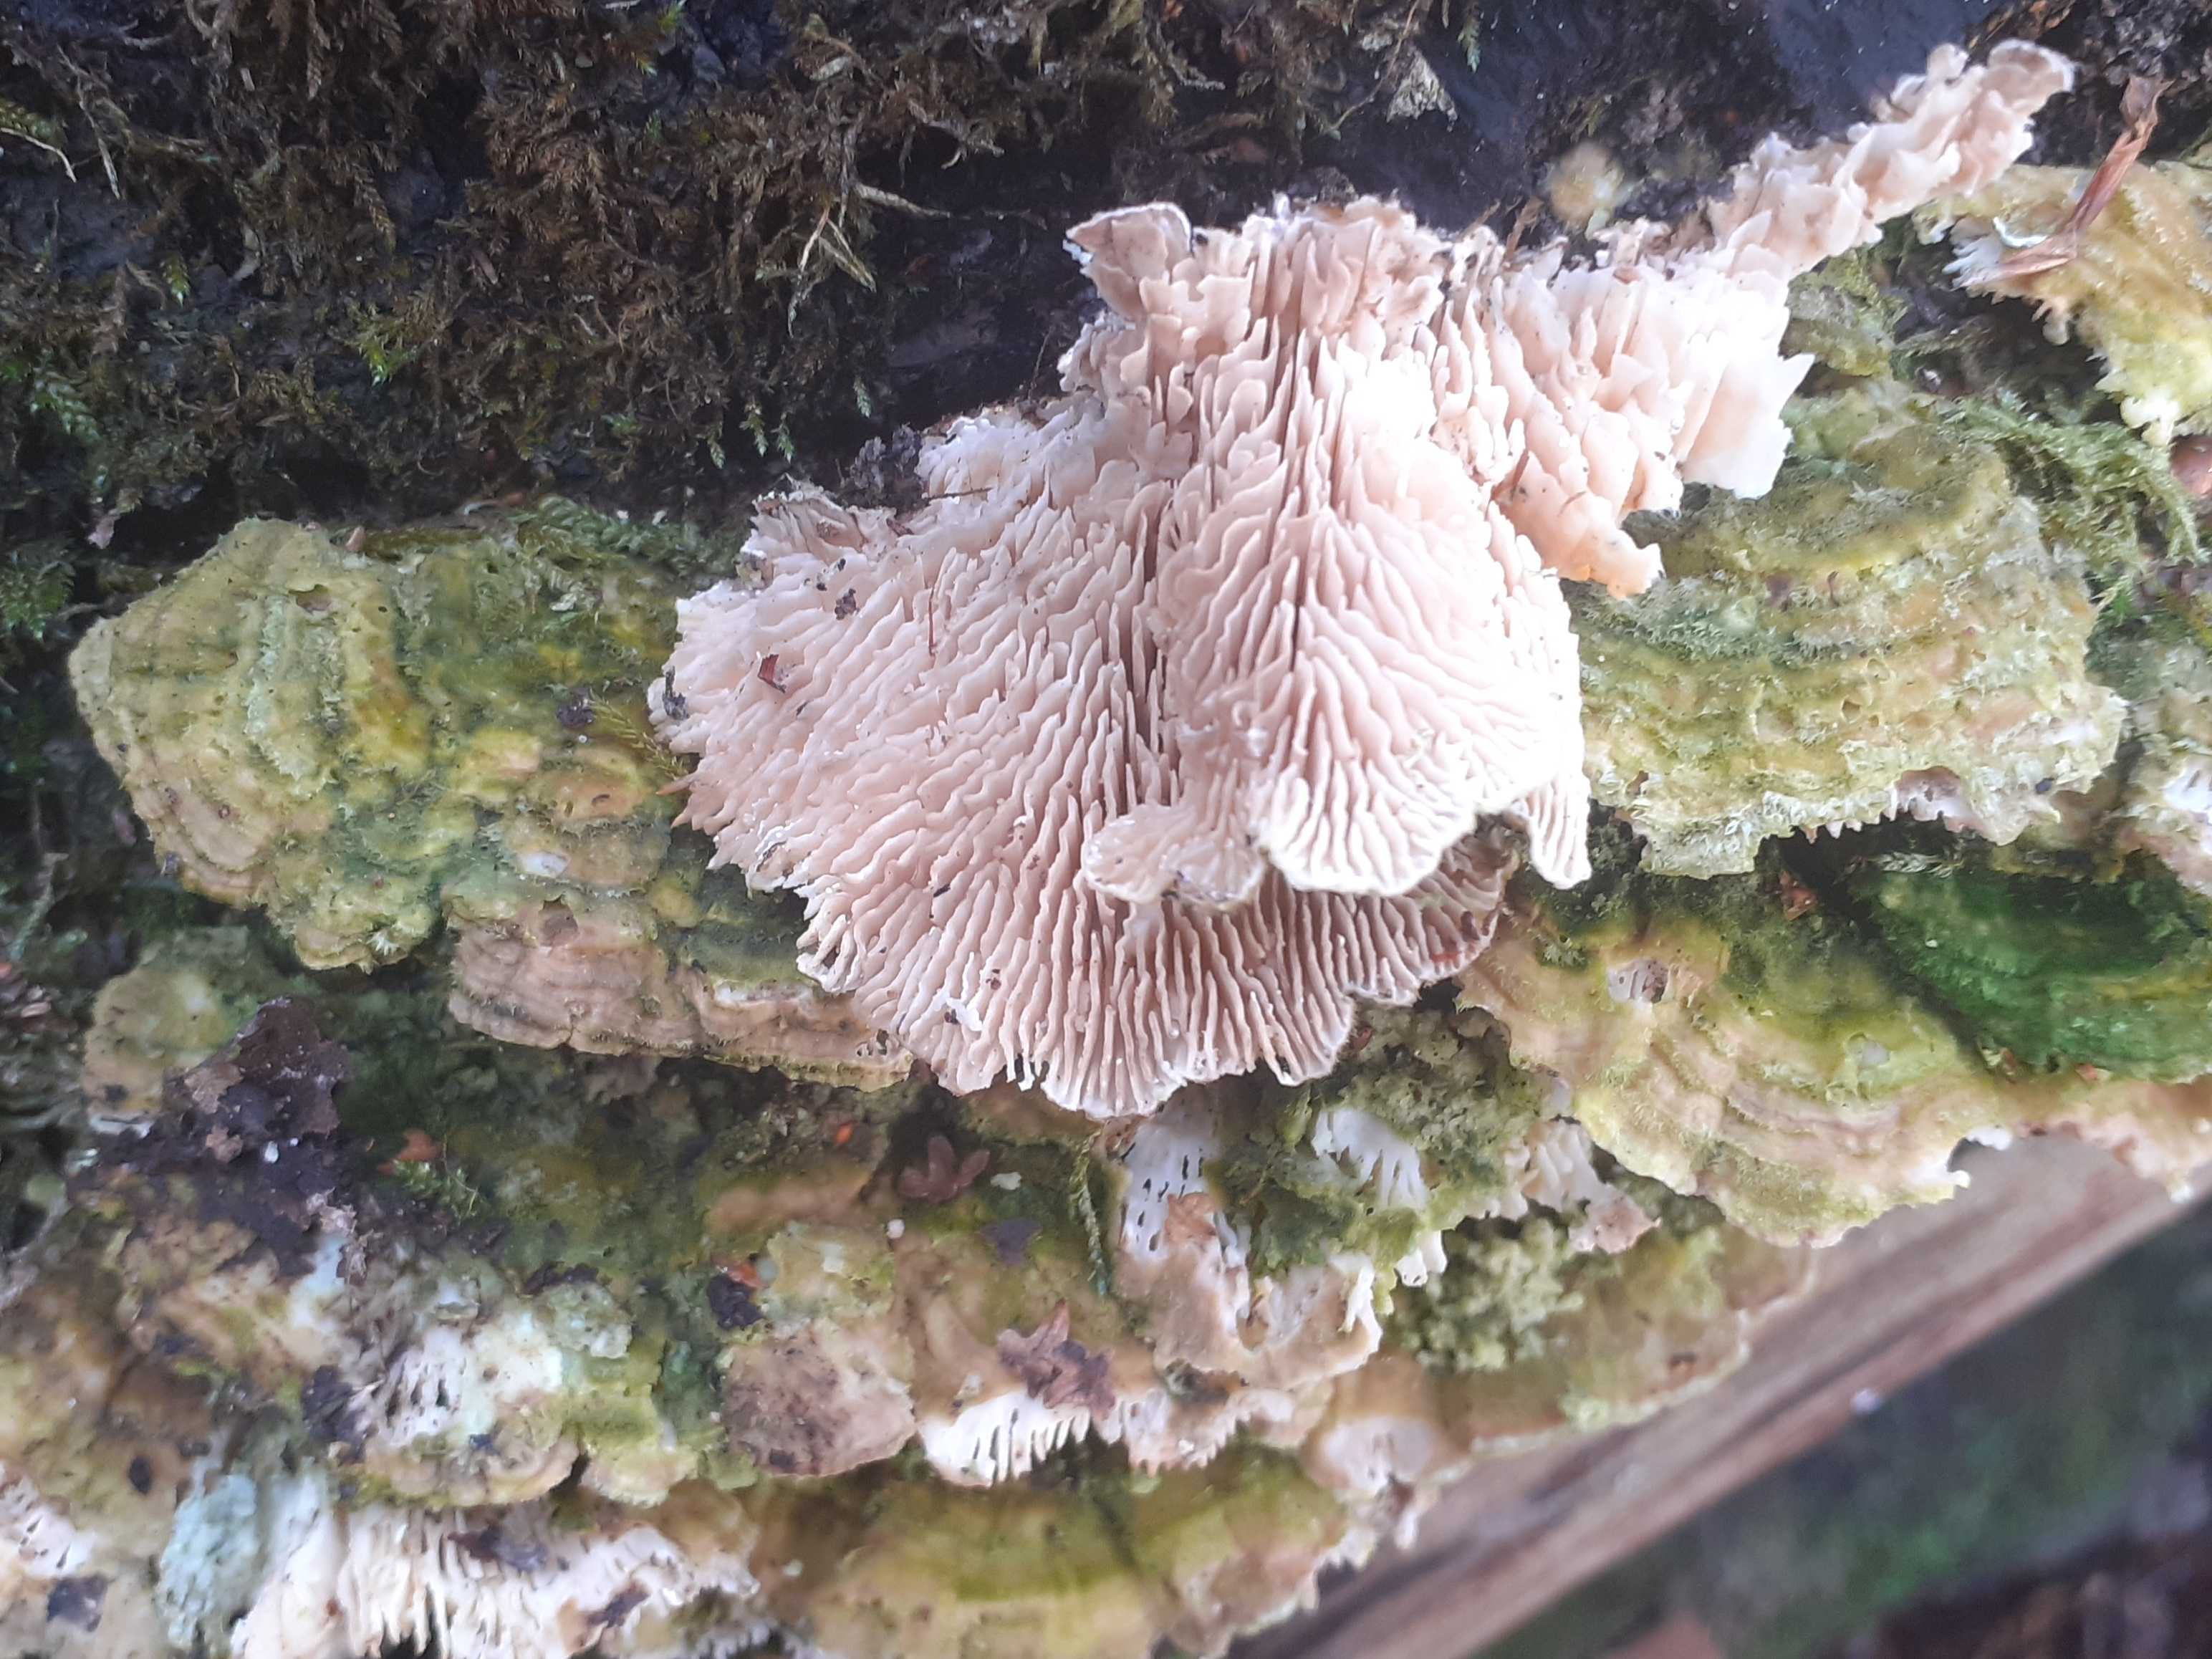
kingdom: Fungi
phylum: Basidiomycota
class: Agaricomycetes
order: Polyporales
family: Polyporaceae
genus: Lenzites
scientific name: Lenzites betulinus
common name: birke-læderporesvamp
